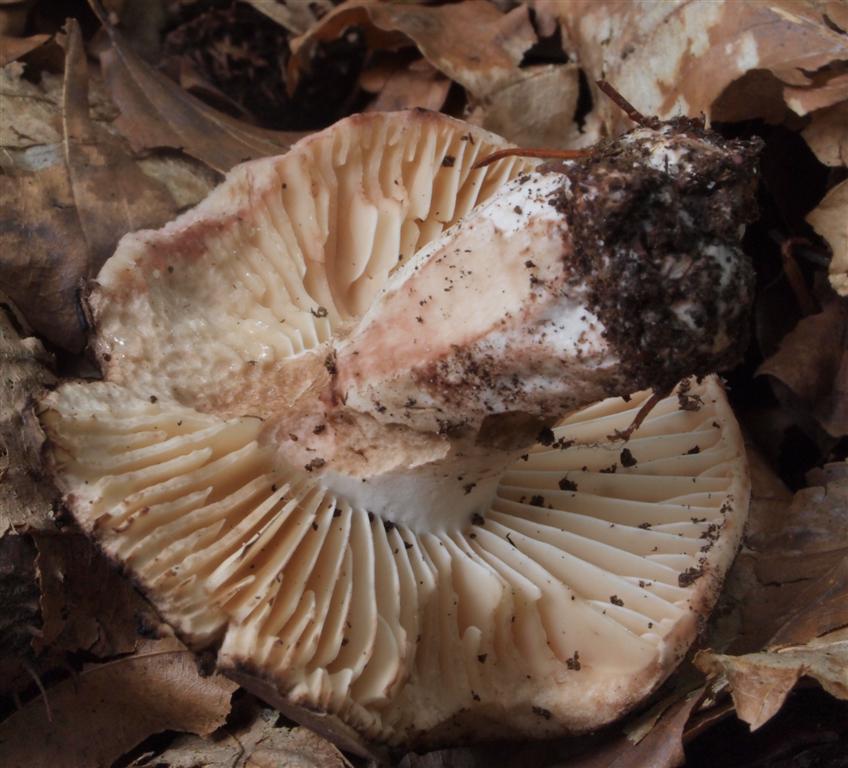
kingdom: Fungi
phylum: Basidiomycota
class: Agaricomycetes
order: Russulales
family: Russulaceae
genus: Russula
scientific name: Russula adusta
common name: sværtende skørhat
